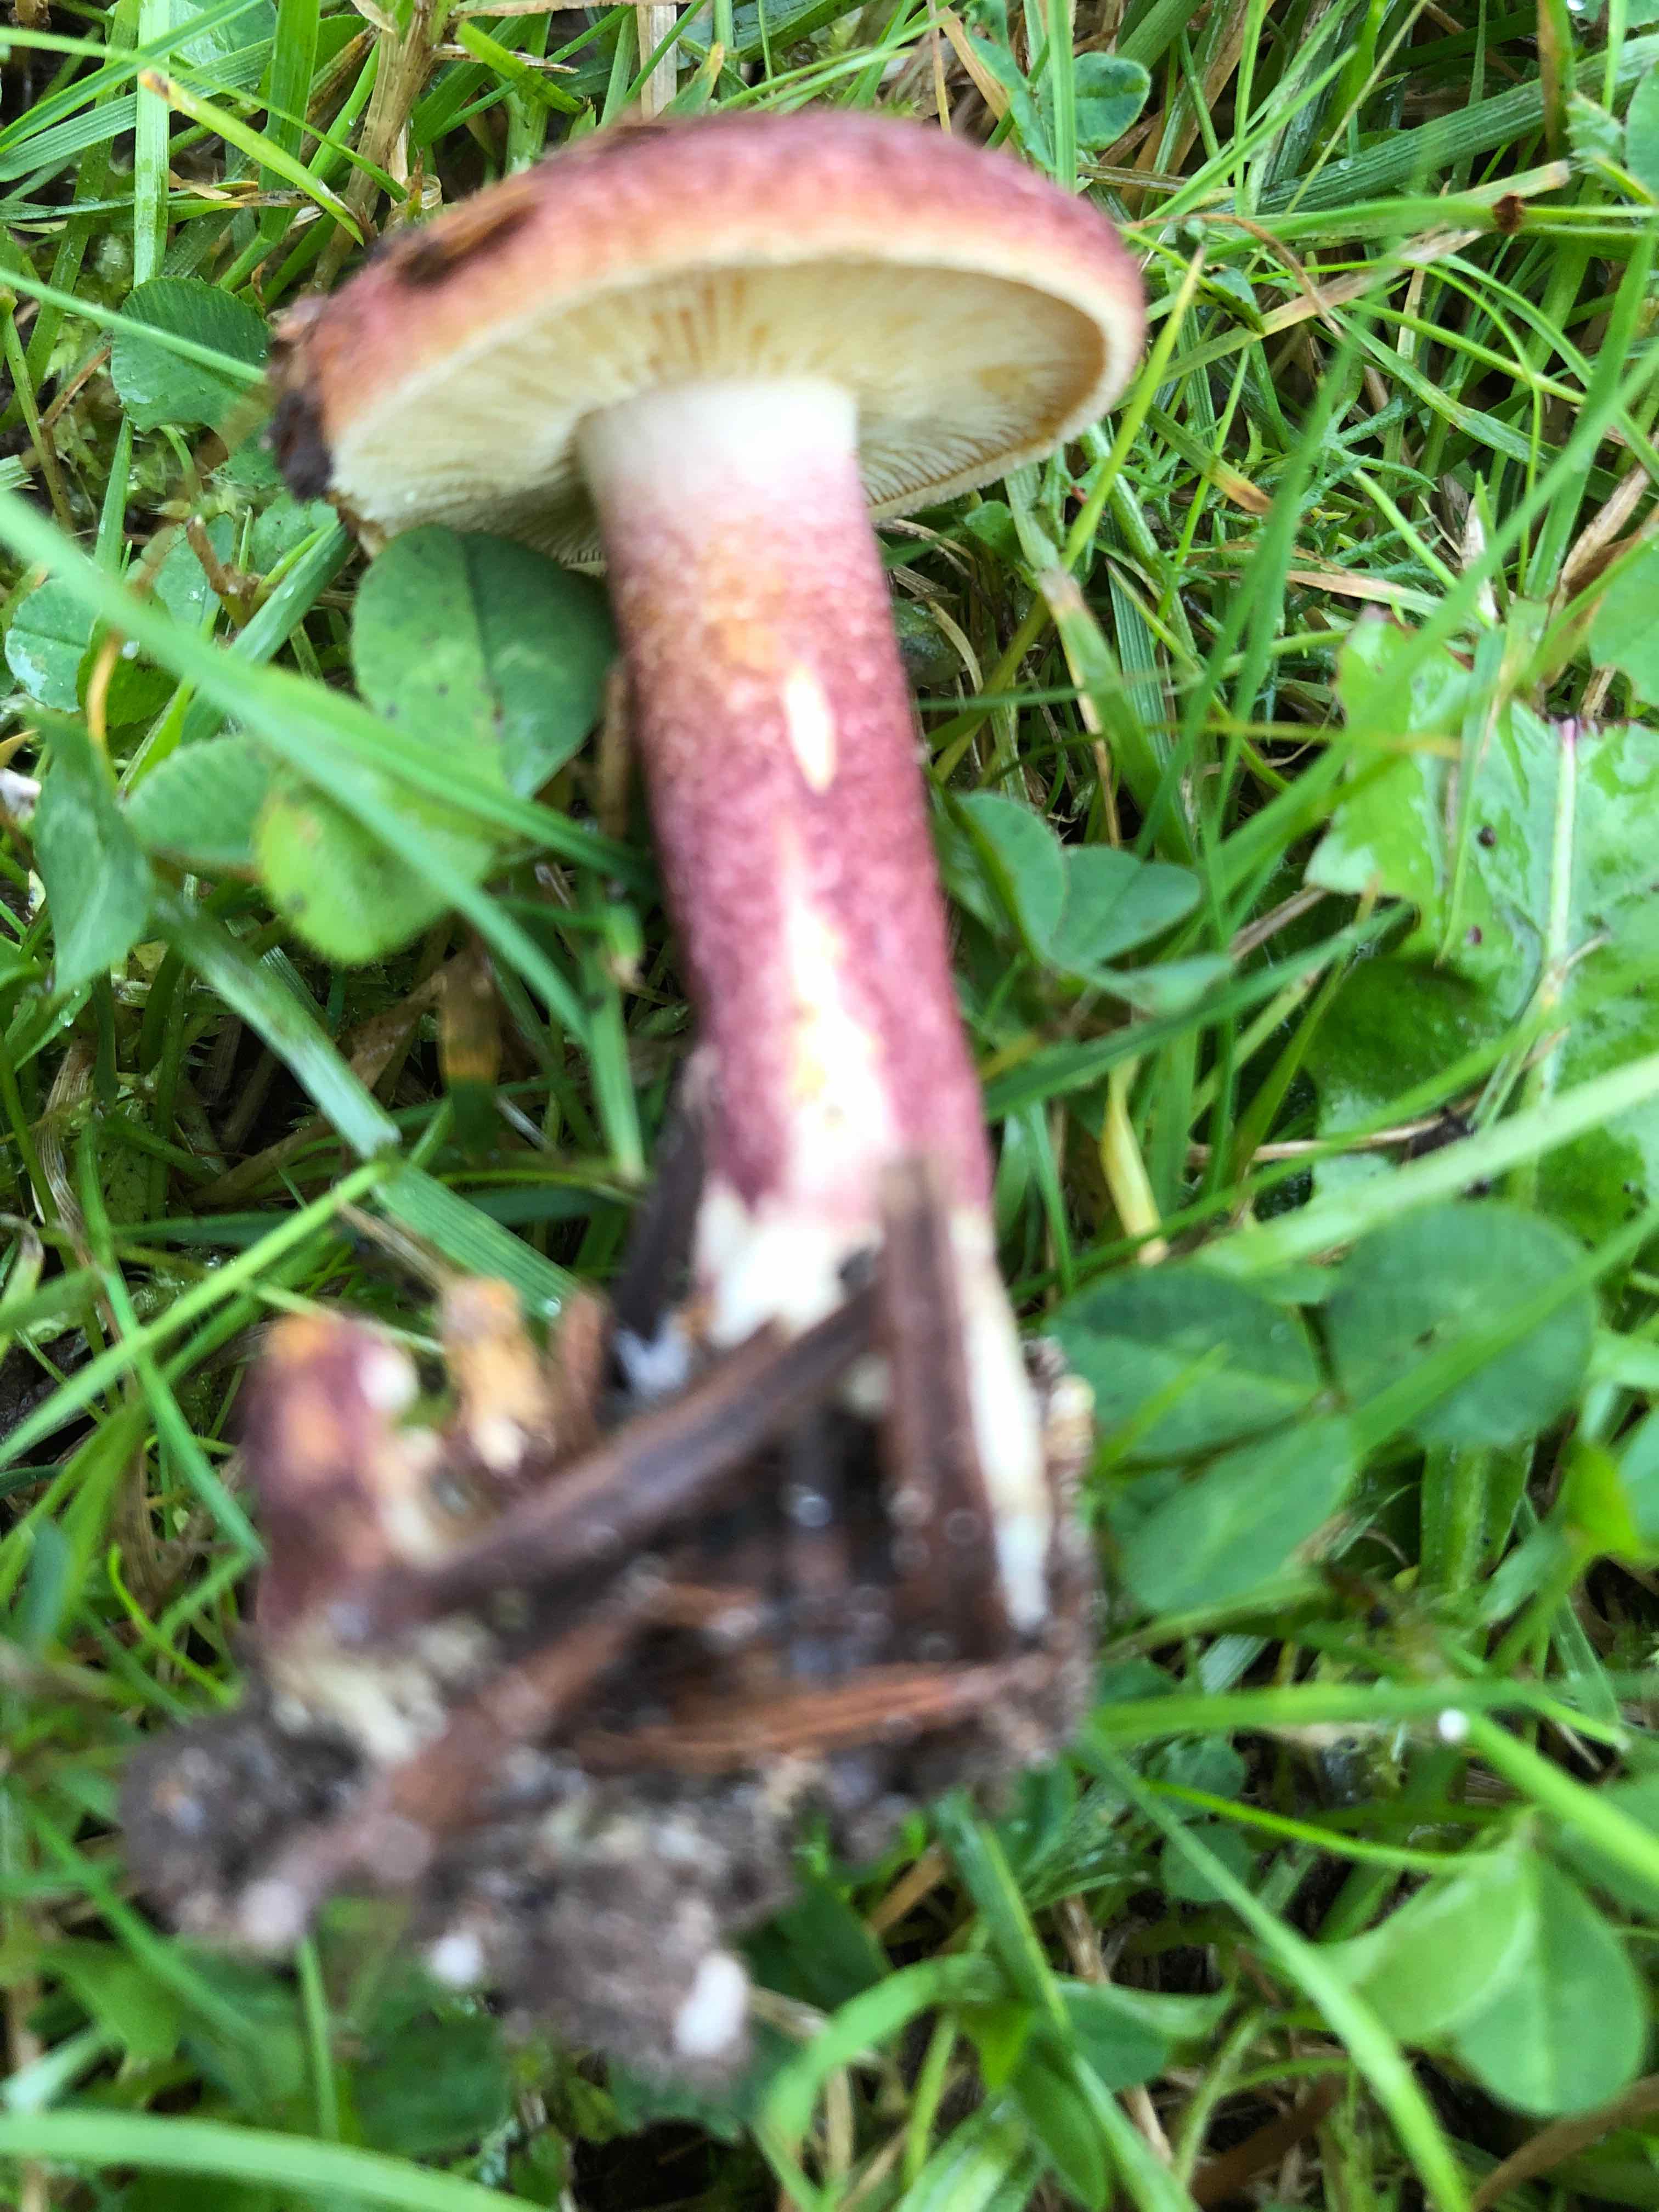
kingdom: Fungi
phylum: Basidiomycota
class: Agaricomycetes
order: Agaricales
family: Tricholomataceae
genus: Tricholomopsis
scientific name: Tricholomopsis rutilans
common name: purpur-væbnerhat
